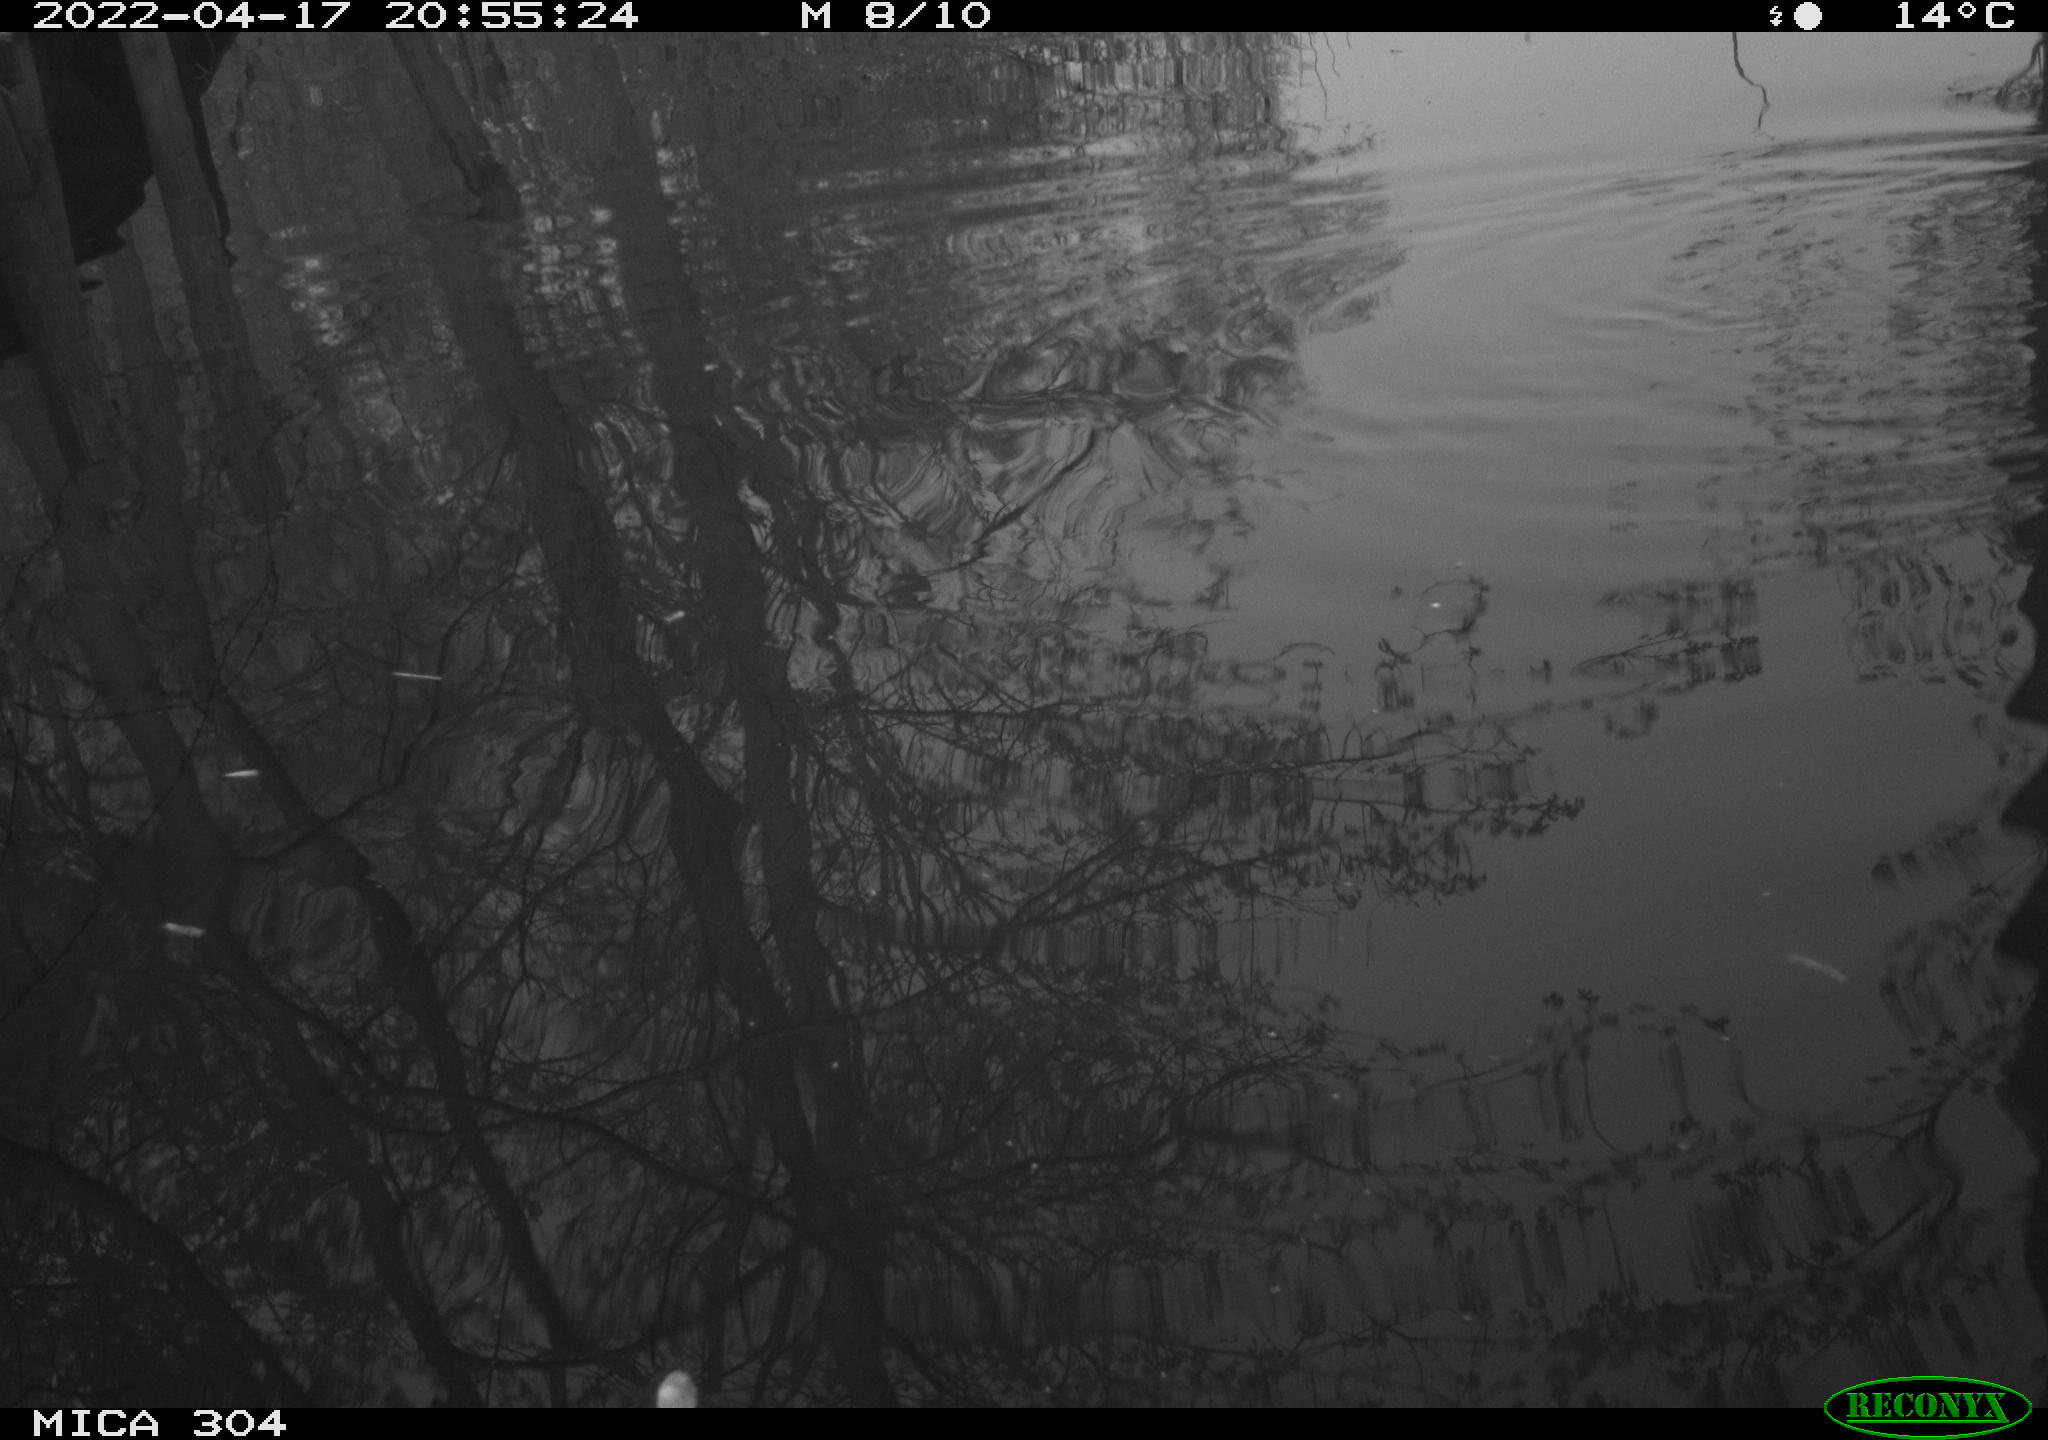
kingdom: Animalia
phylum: Chordata
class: Aves
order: Gruiformes
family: Rallidae
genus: Gallinula
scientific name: Gallinula chloropus
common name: Common moorhen
